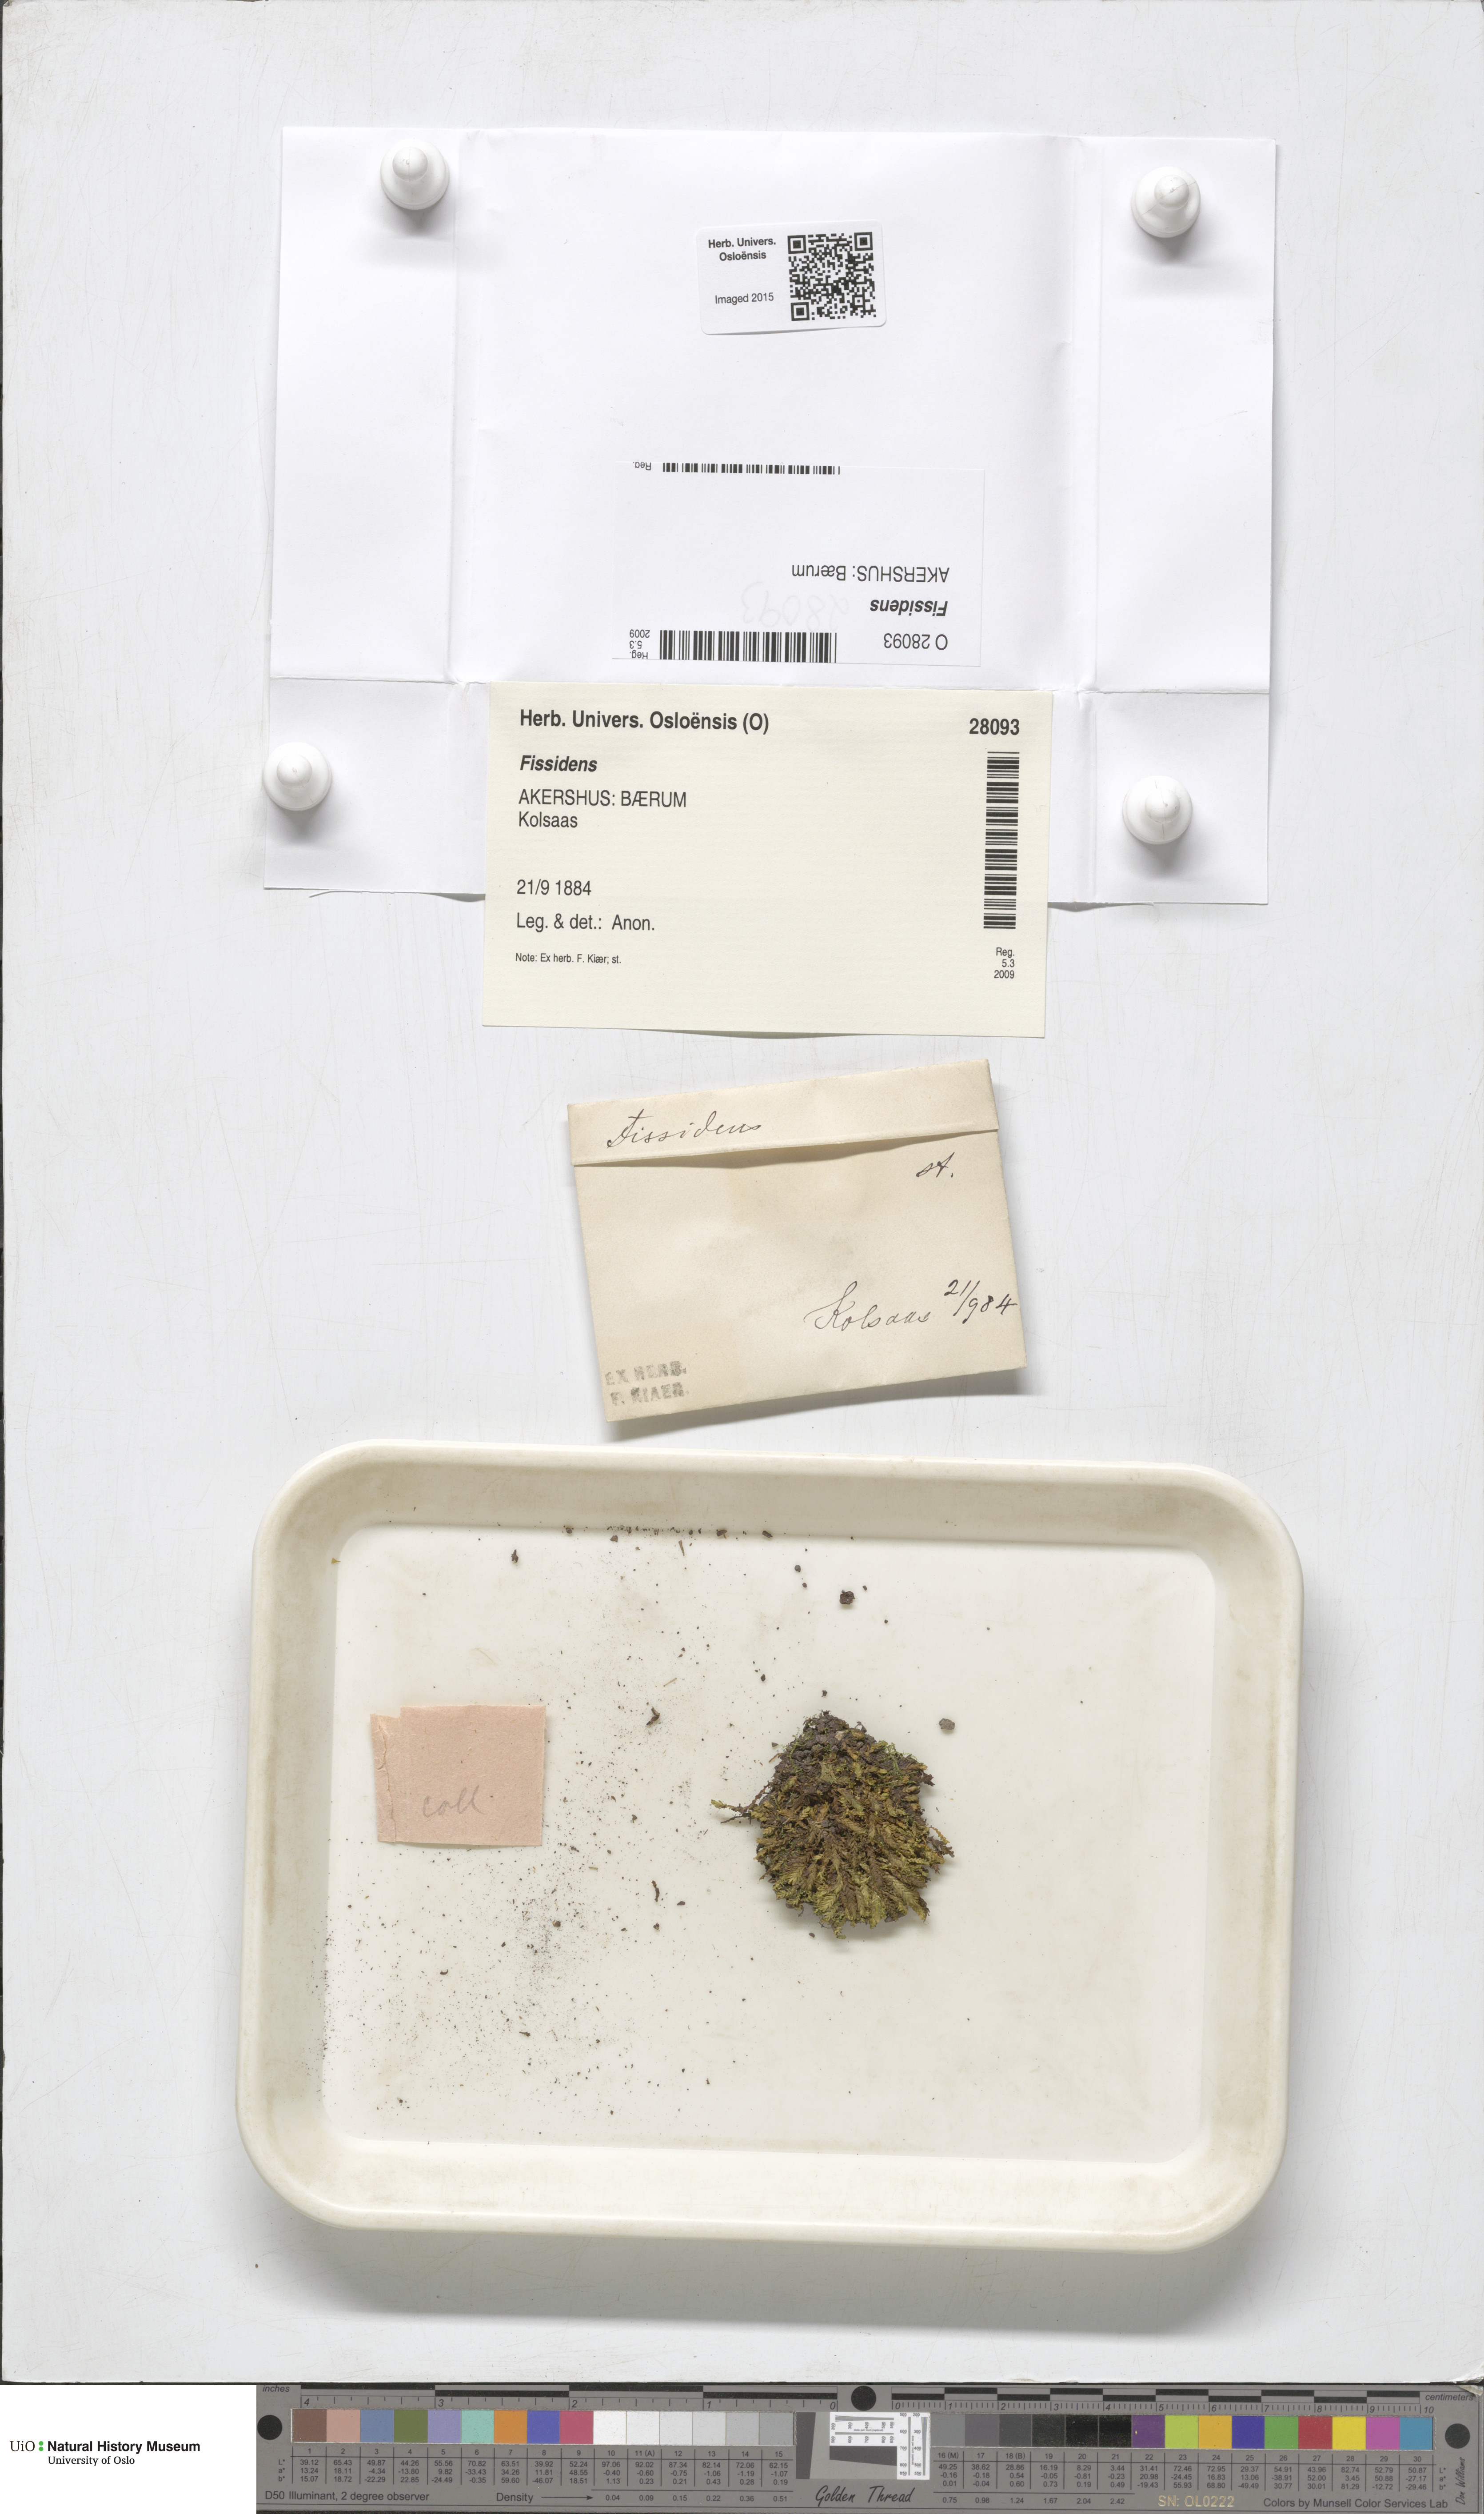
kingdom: Plantae
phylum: Bryophyta
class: Bryopsida
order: Dicranales
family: Fissidentaceae
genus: Fissidens
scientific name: Fissidens
